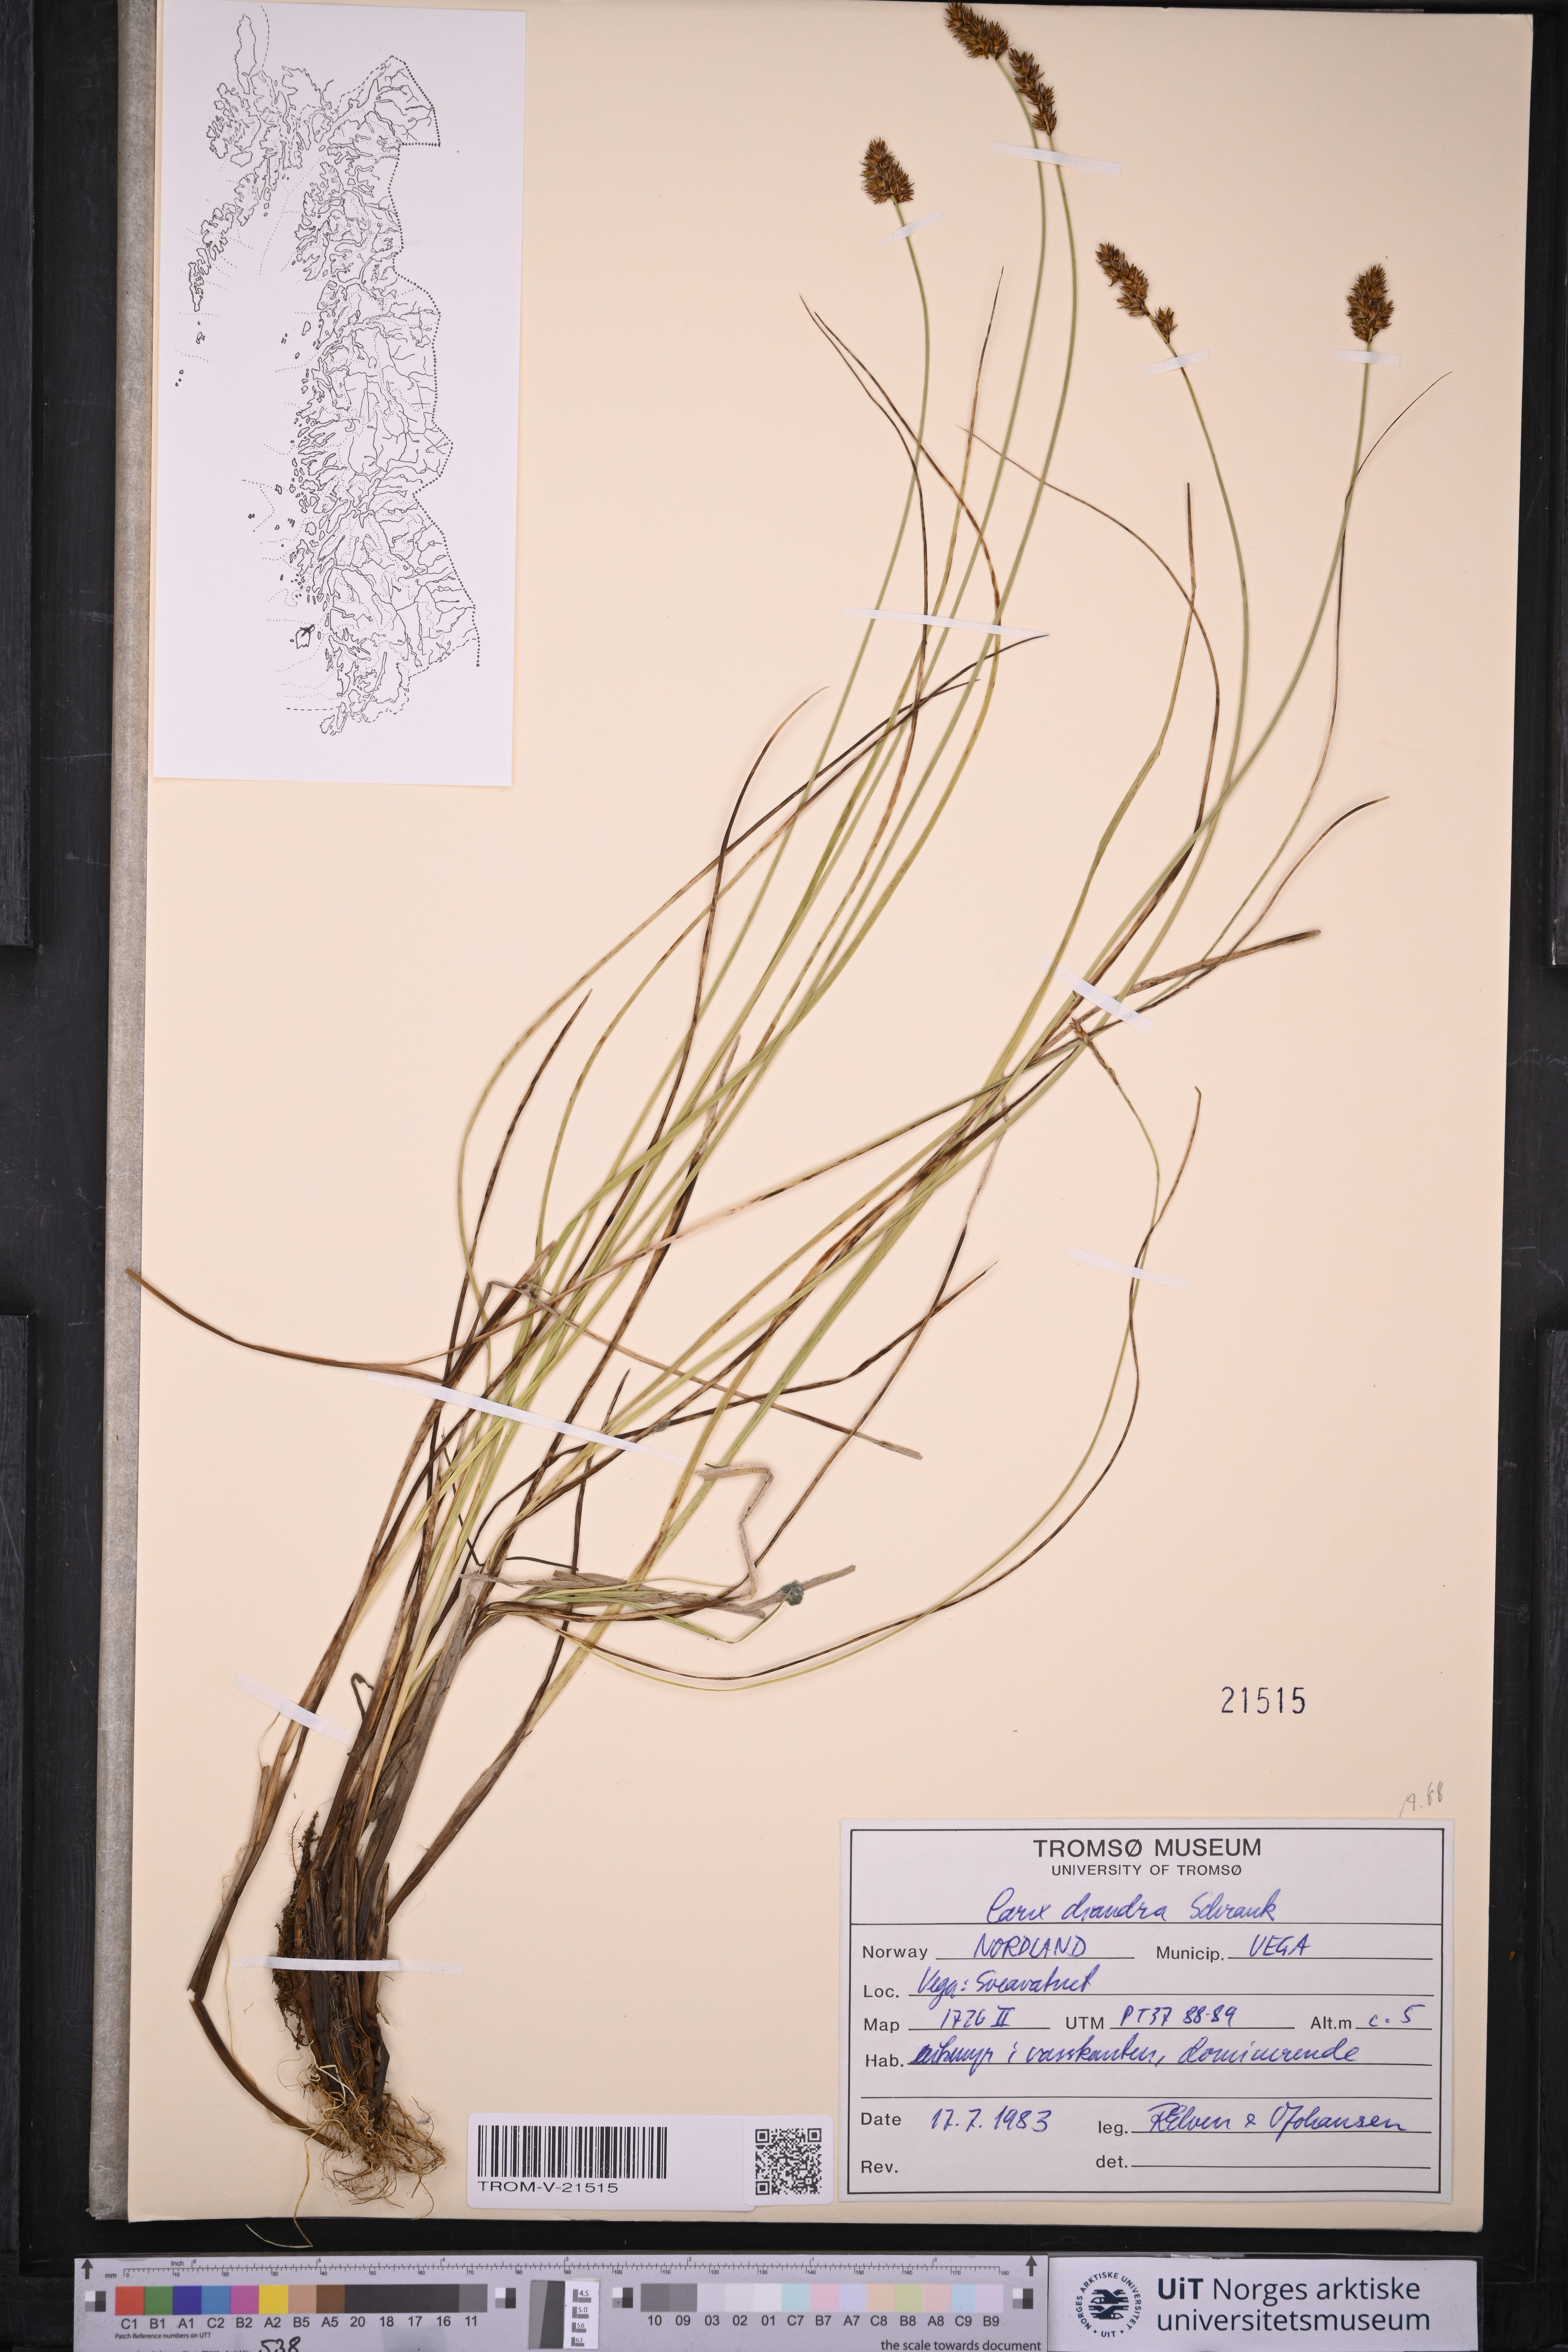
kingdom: Plantae
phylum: Tracheophyta
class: Liliopsida
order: Poales
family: Cyperaceae
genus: Carex
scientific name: Carex diandra
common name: Lesser tussock-sedge
